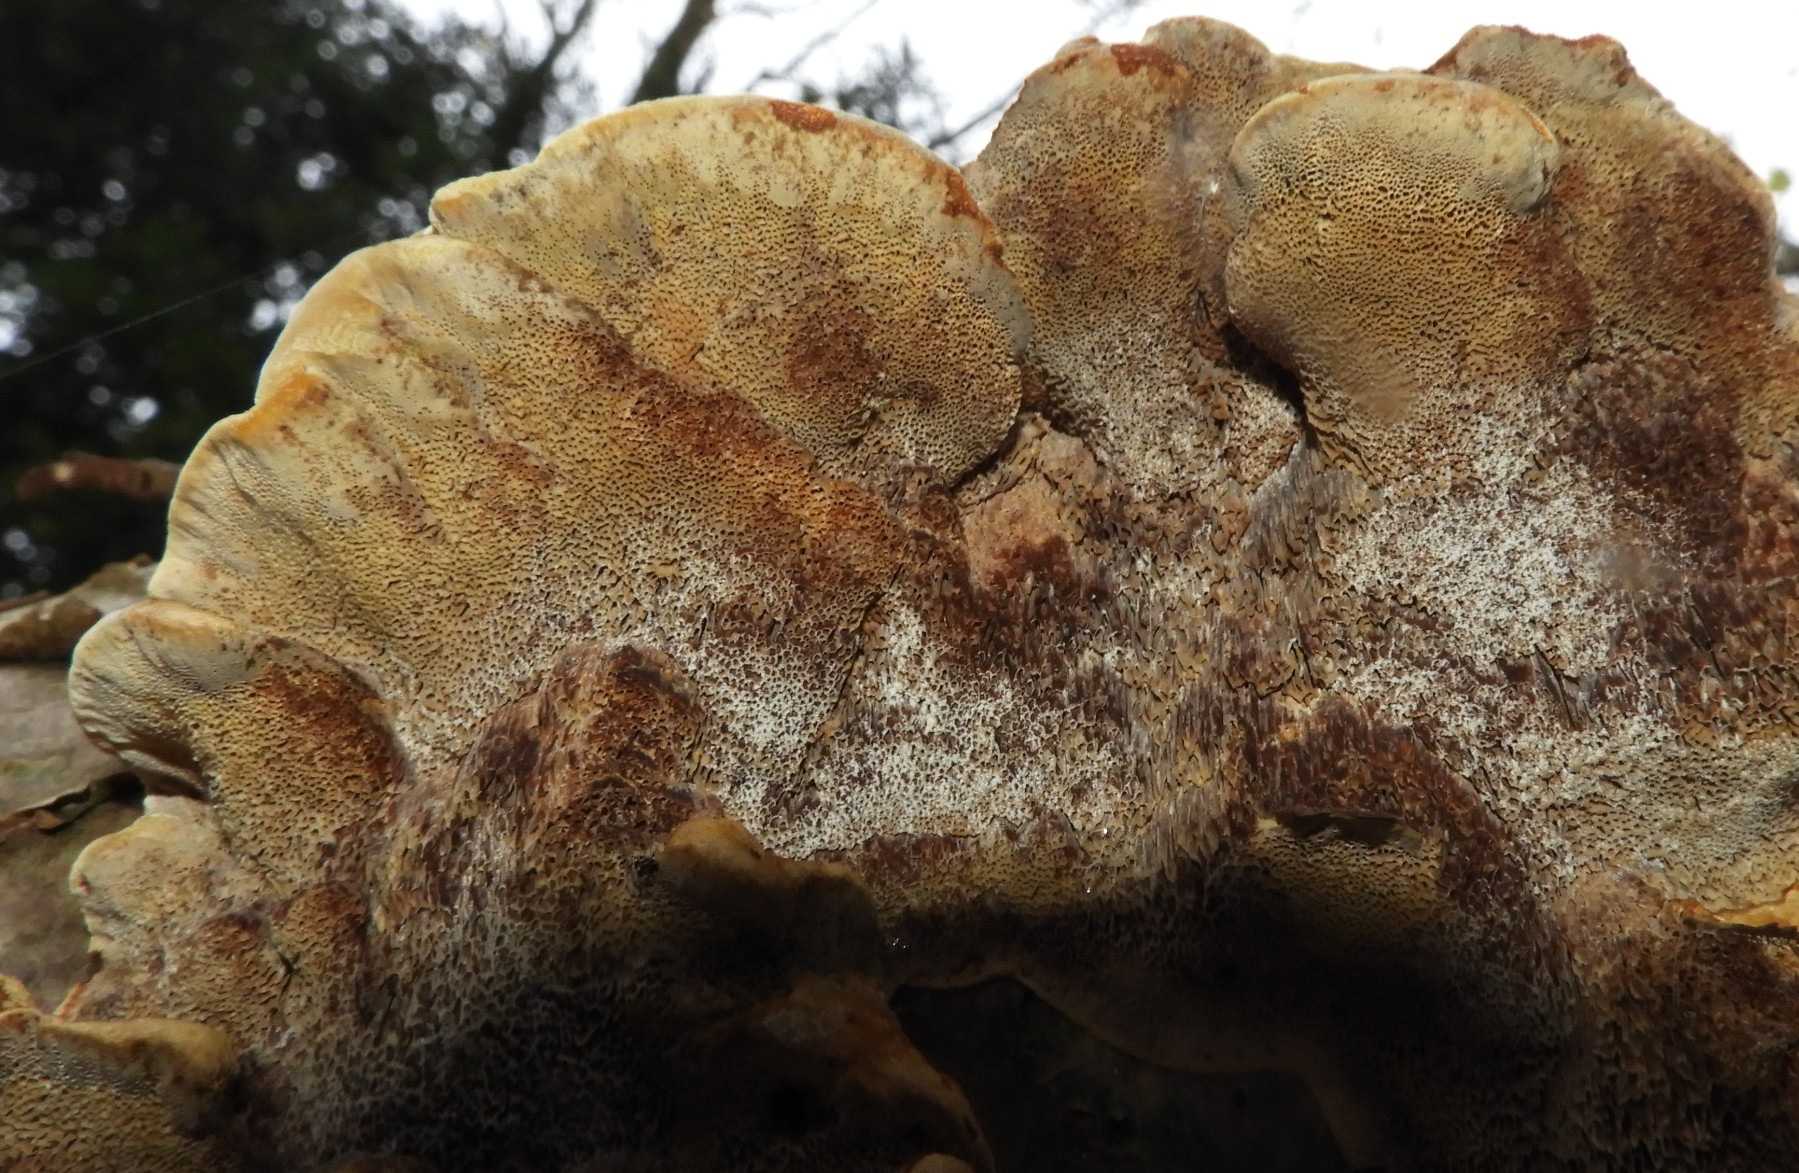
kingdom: Fungi
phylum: Basidiomycota
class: Agaricomycetes
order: Hymenochaetales
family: Hymenochaetaceae
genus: Xanthoporia
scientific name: Xanthoporia radiata
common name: elle-spejlporesvamp
